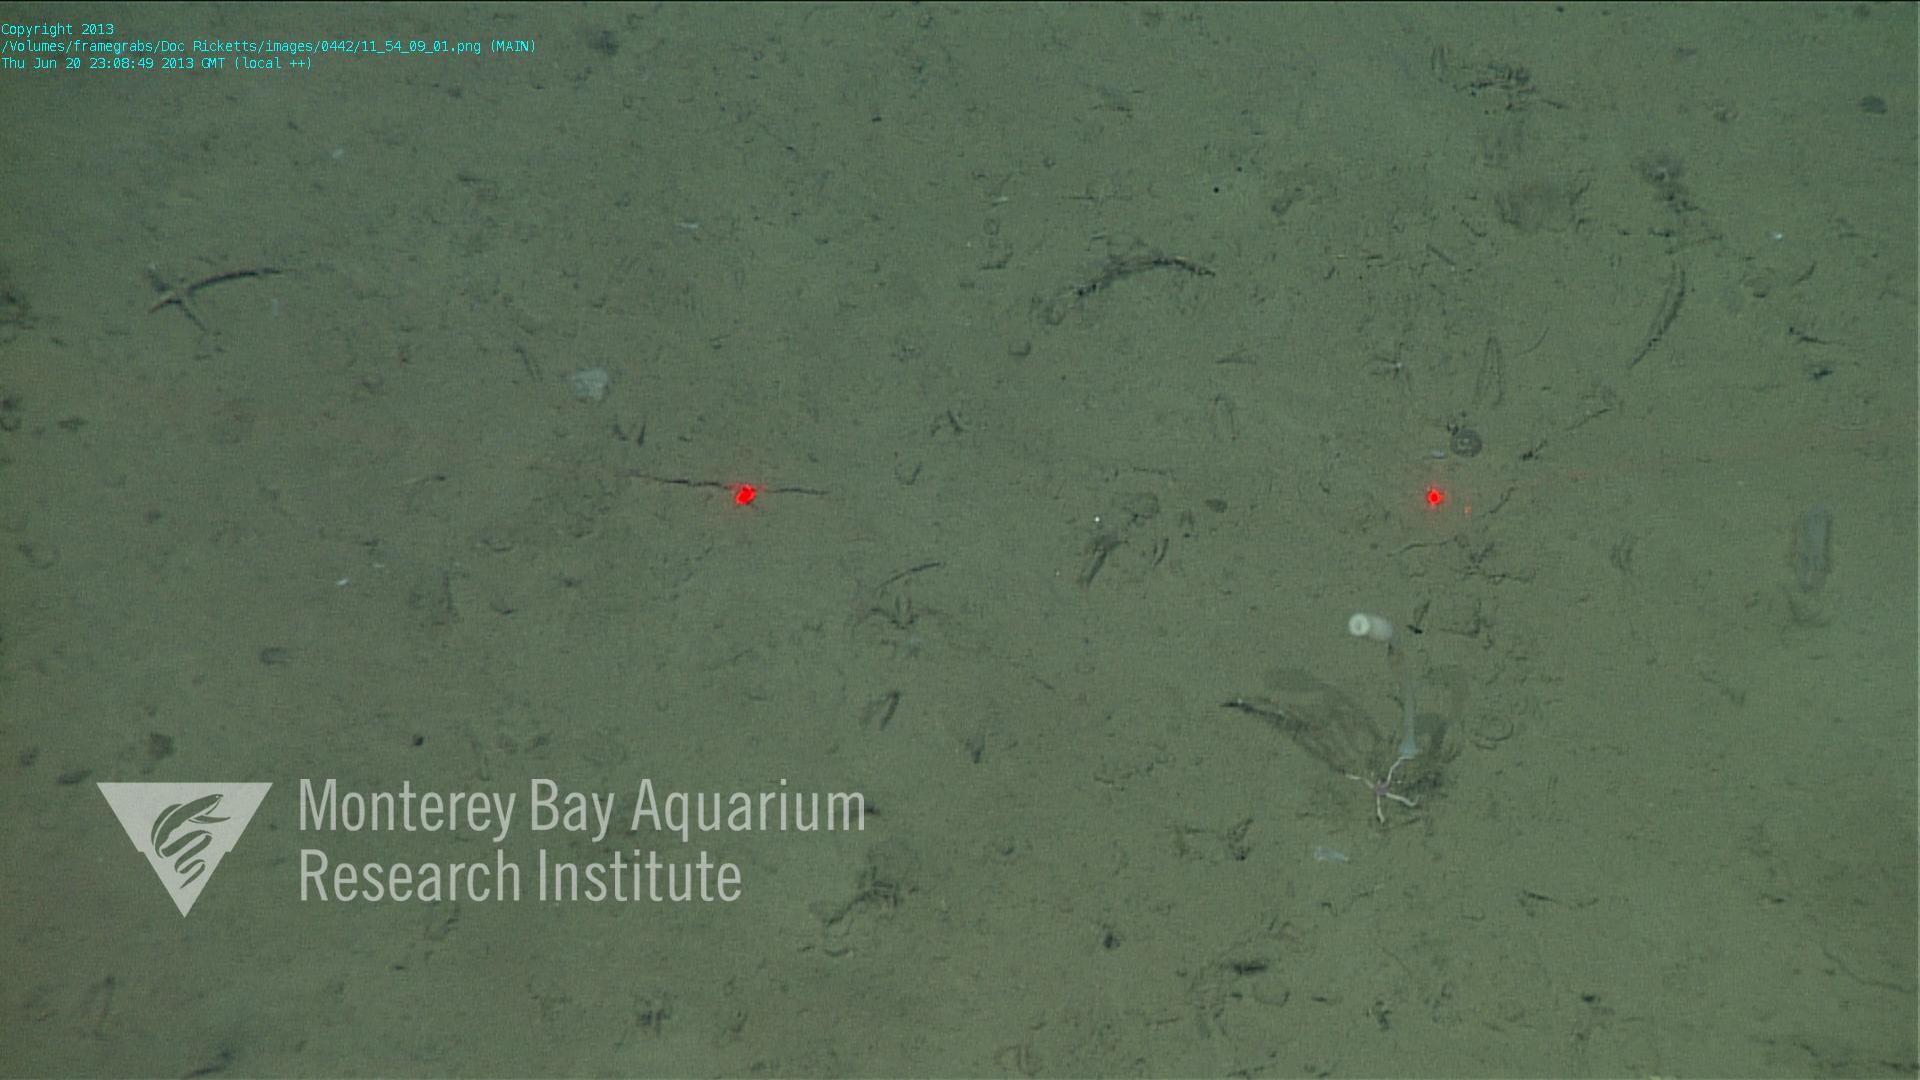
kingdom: Animalia
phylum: Porifera
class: Hexactinellida
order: Amphidiscosida
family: Hyalonematidae
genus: Hyalonema
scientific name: Hyalonema
